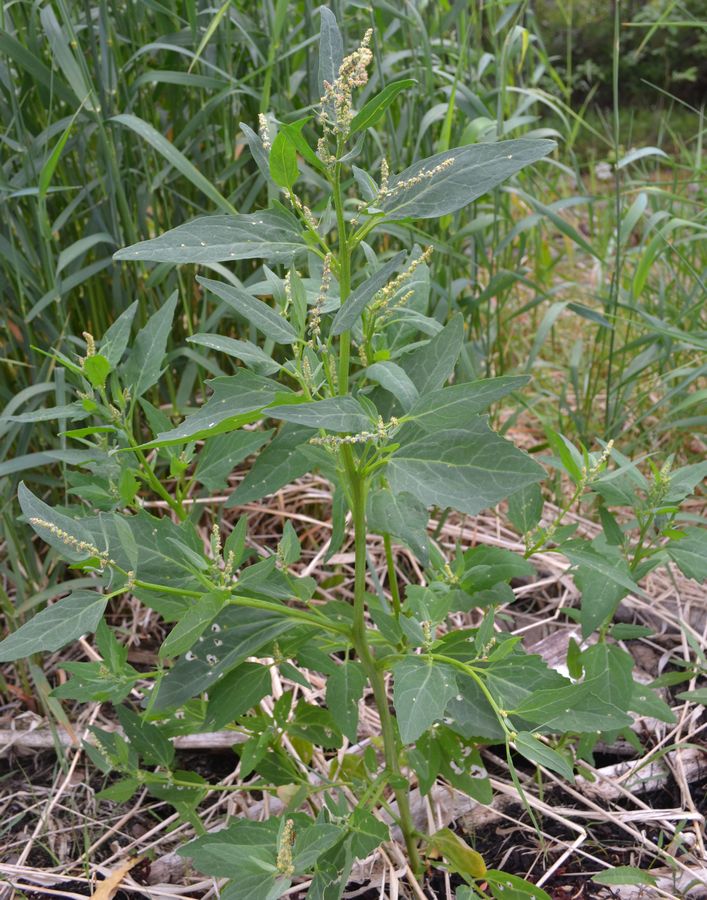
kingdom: Plantae
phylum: Tracheophyta
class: Magnoliopsida
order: Caryophyllales
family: Amaranthaceae
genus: Atriplex
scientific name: Atriplex nudicaulis
